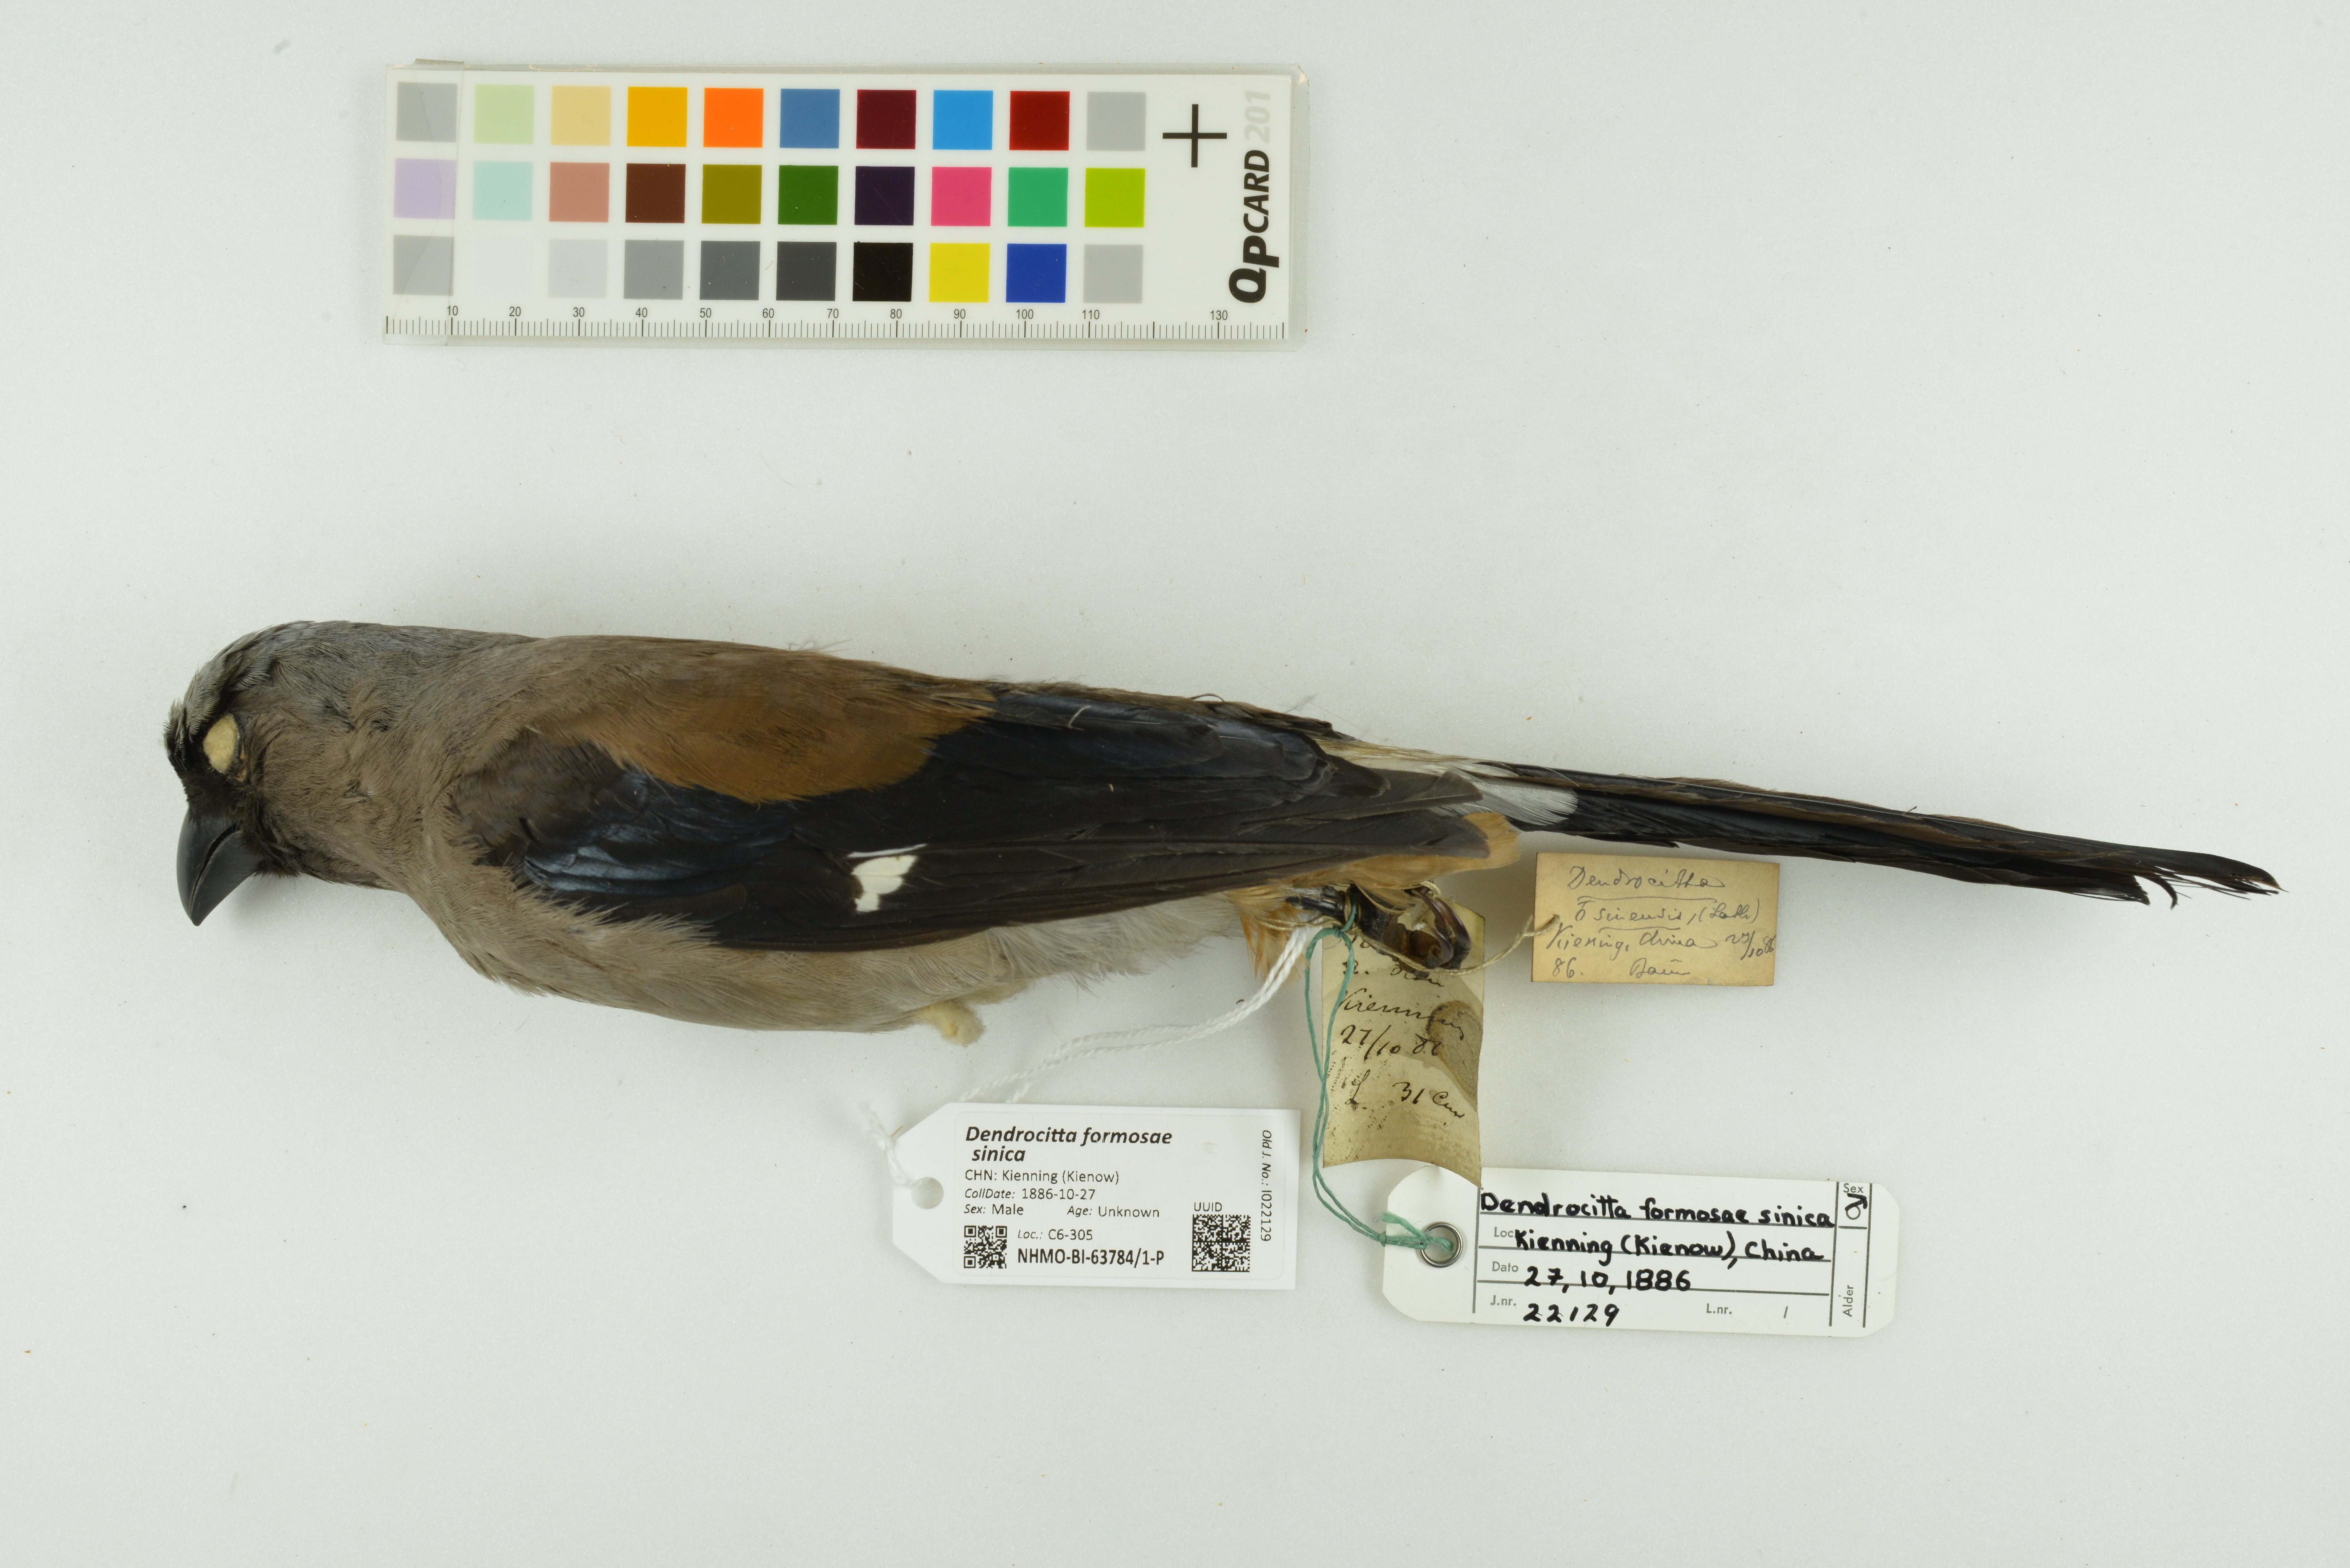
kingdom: Animalia
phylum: Chordata
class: Aves
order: Passeriformes
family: Corvidae
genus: Dendrocitta
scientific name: Dendrocitta formosae
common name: Grey treepie
